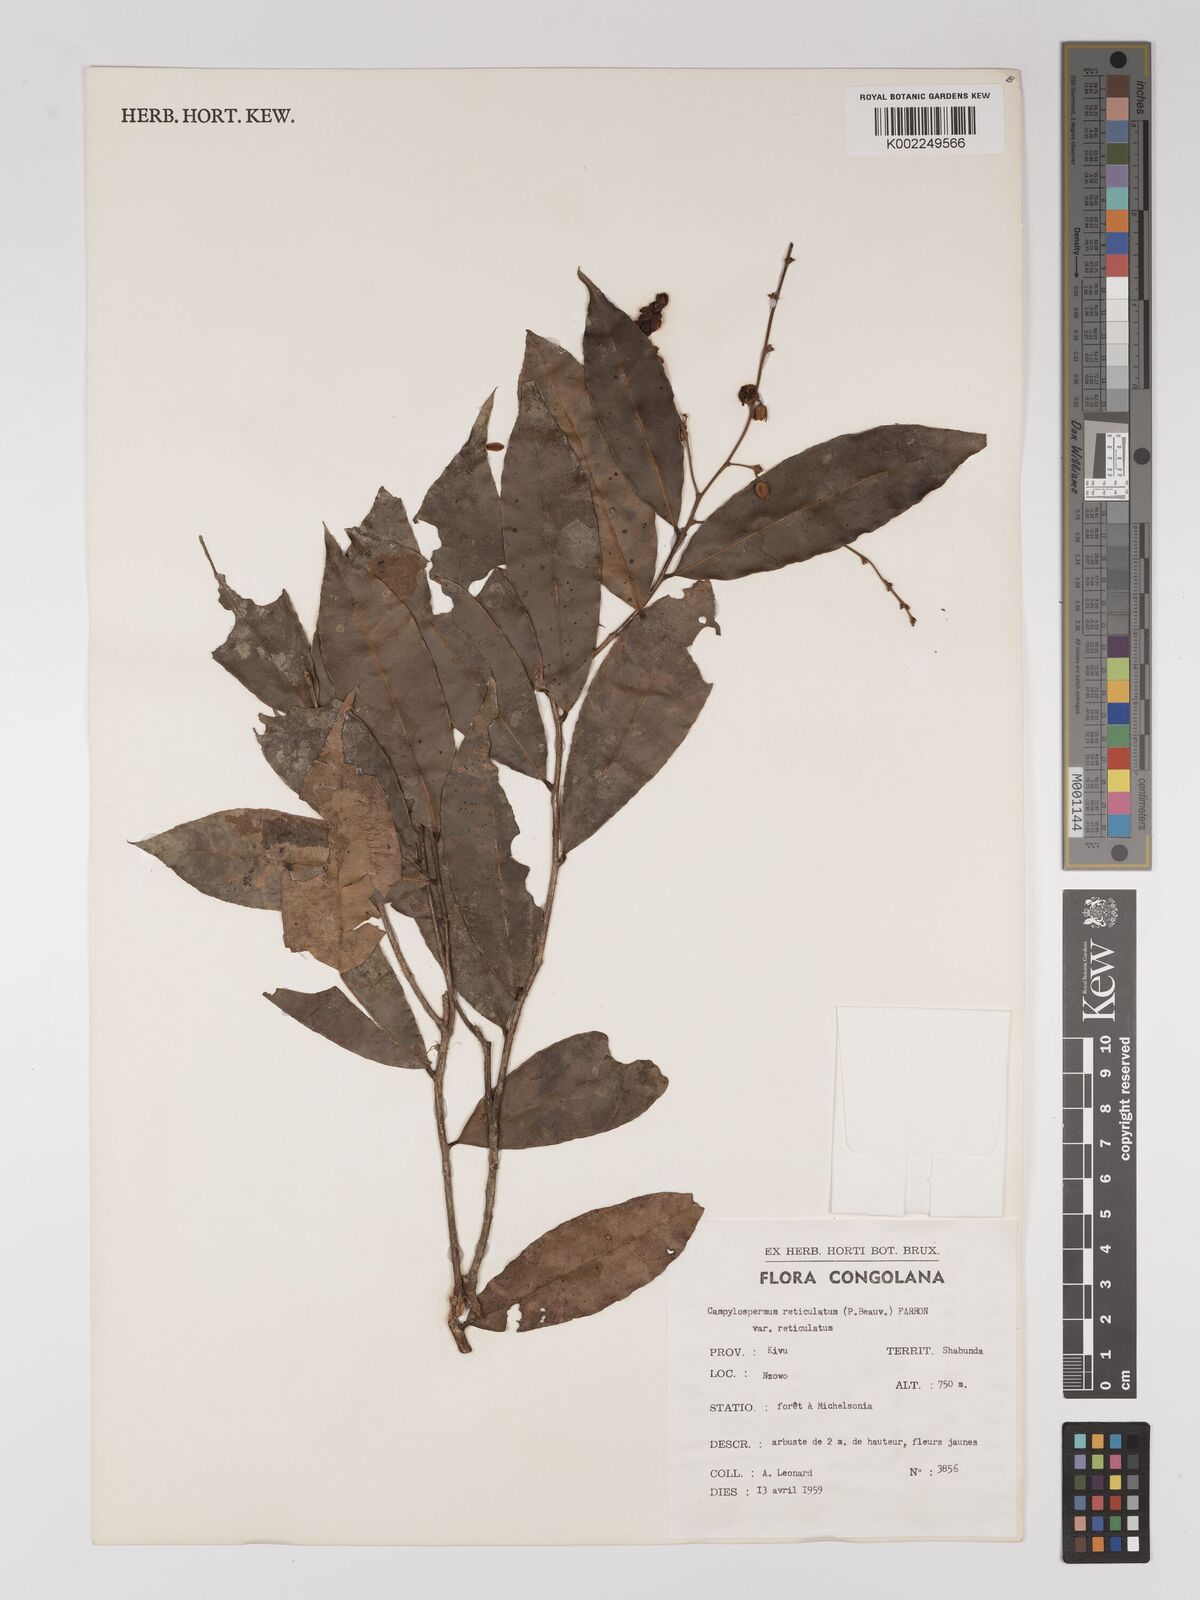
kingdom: Plantae
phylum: Tracheophyta
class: Magnoliopsida
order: Malpighiales
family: Ochnaceae
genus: Campylospermum
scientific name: Campylospermum reticulatum
